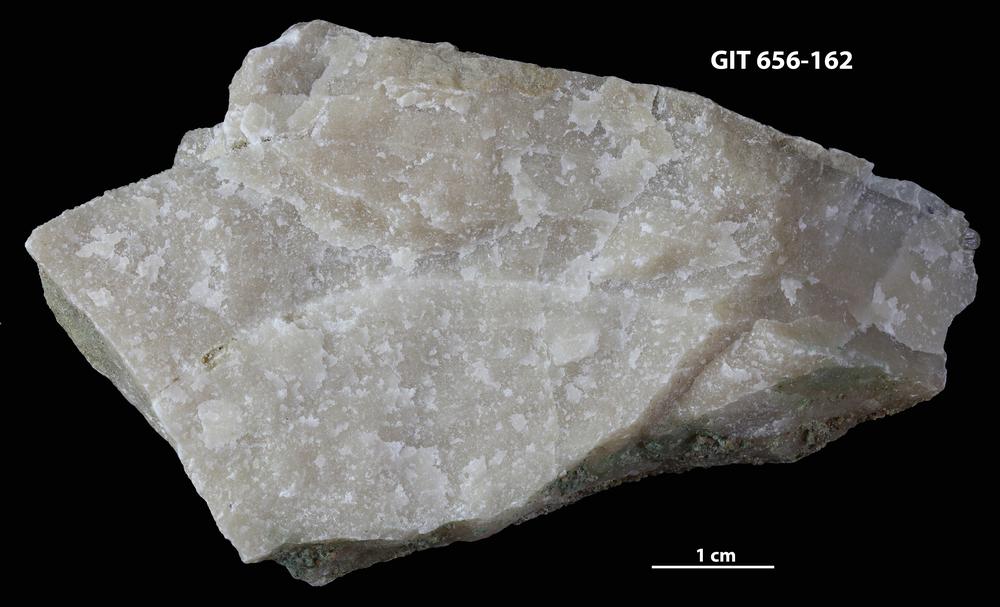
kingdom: Animalia
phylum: Porifera
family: Stromatoporidae
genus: Stromatopora
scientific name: Stromatopora
